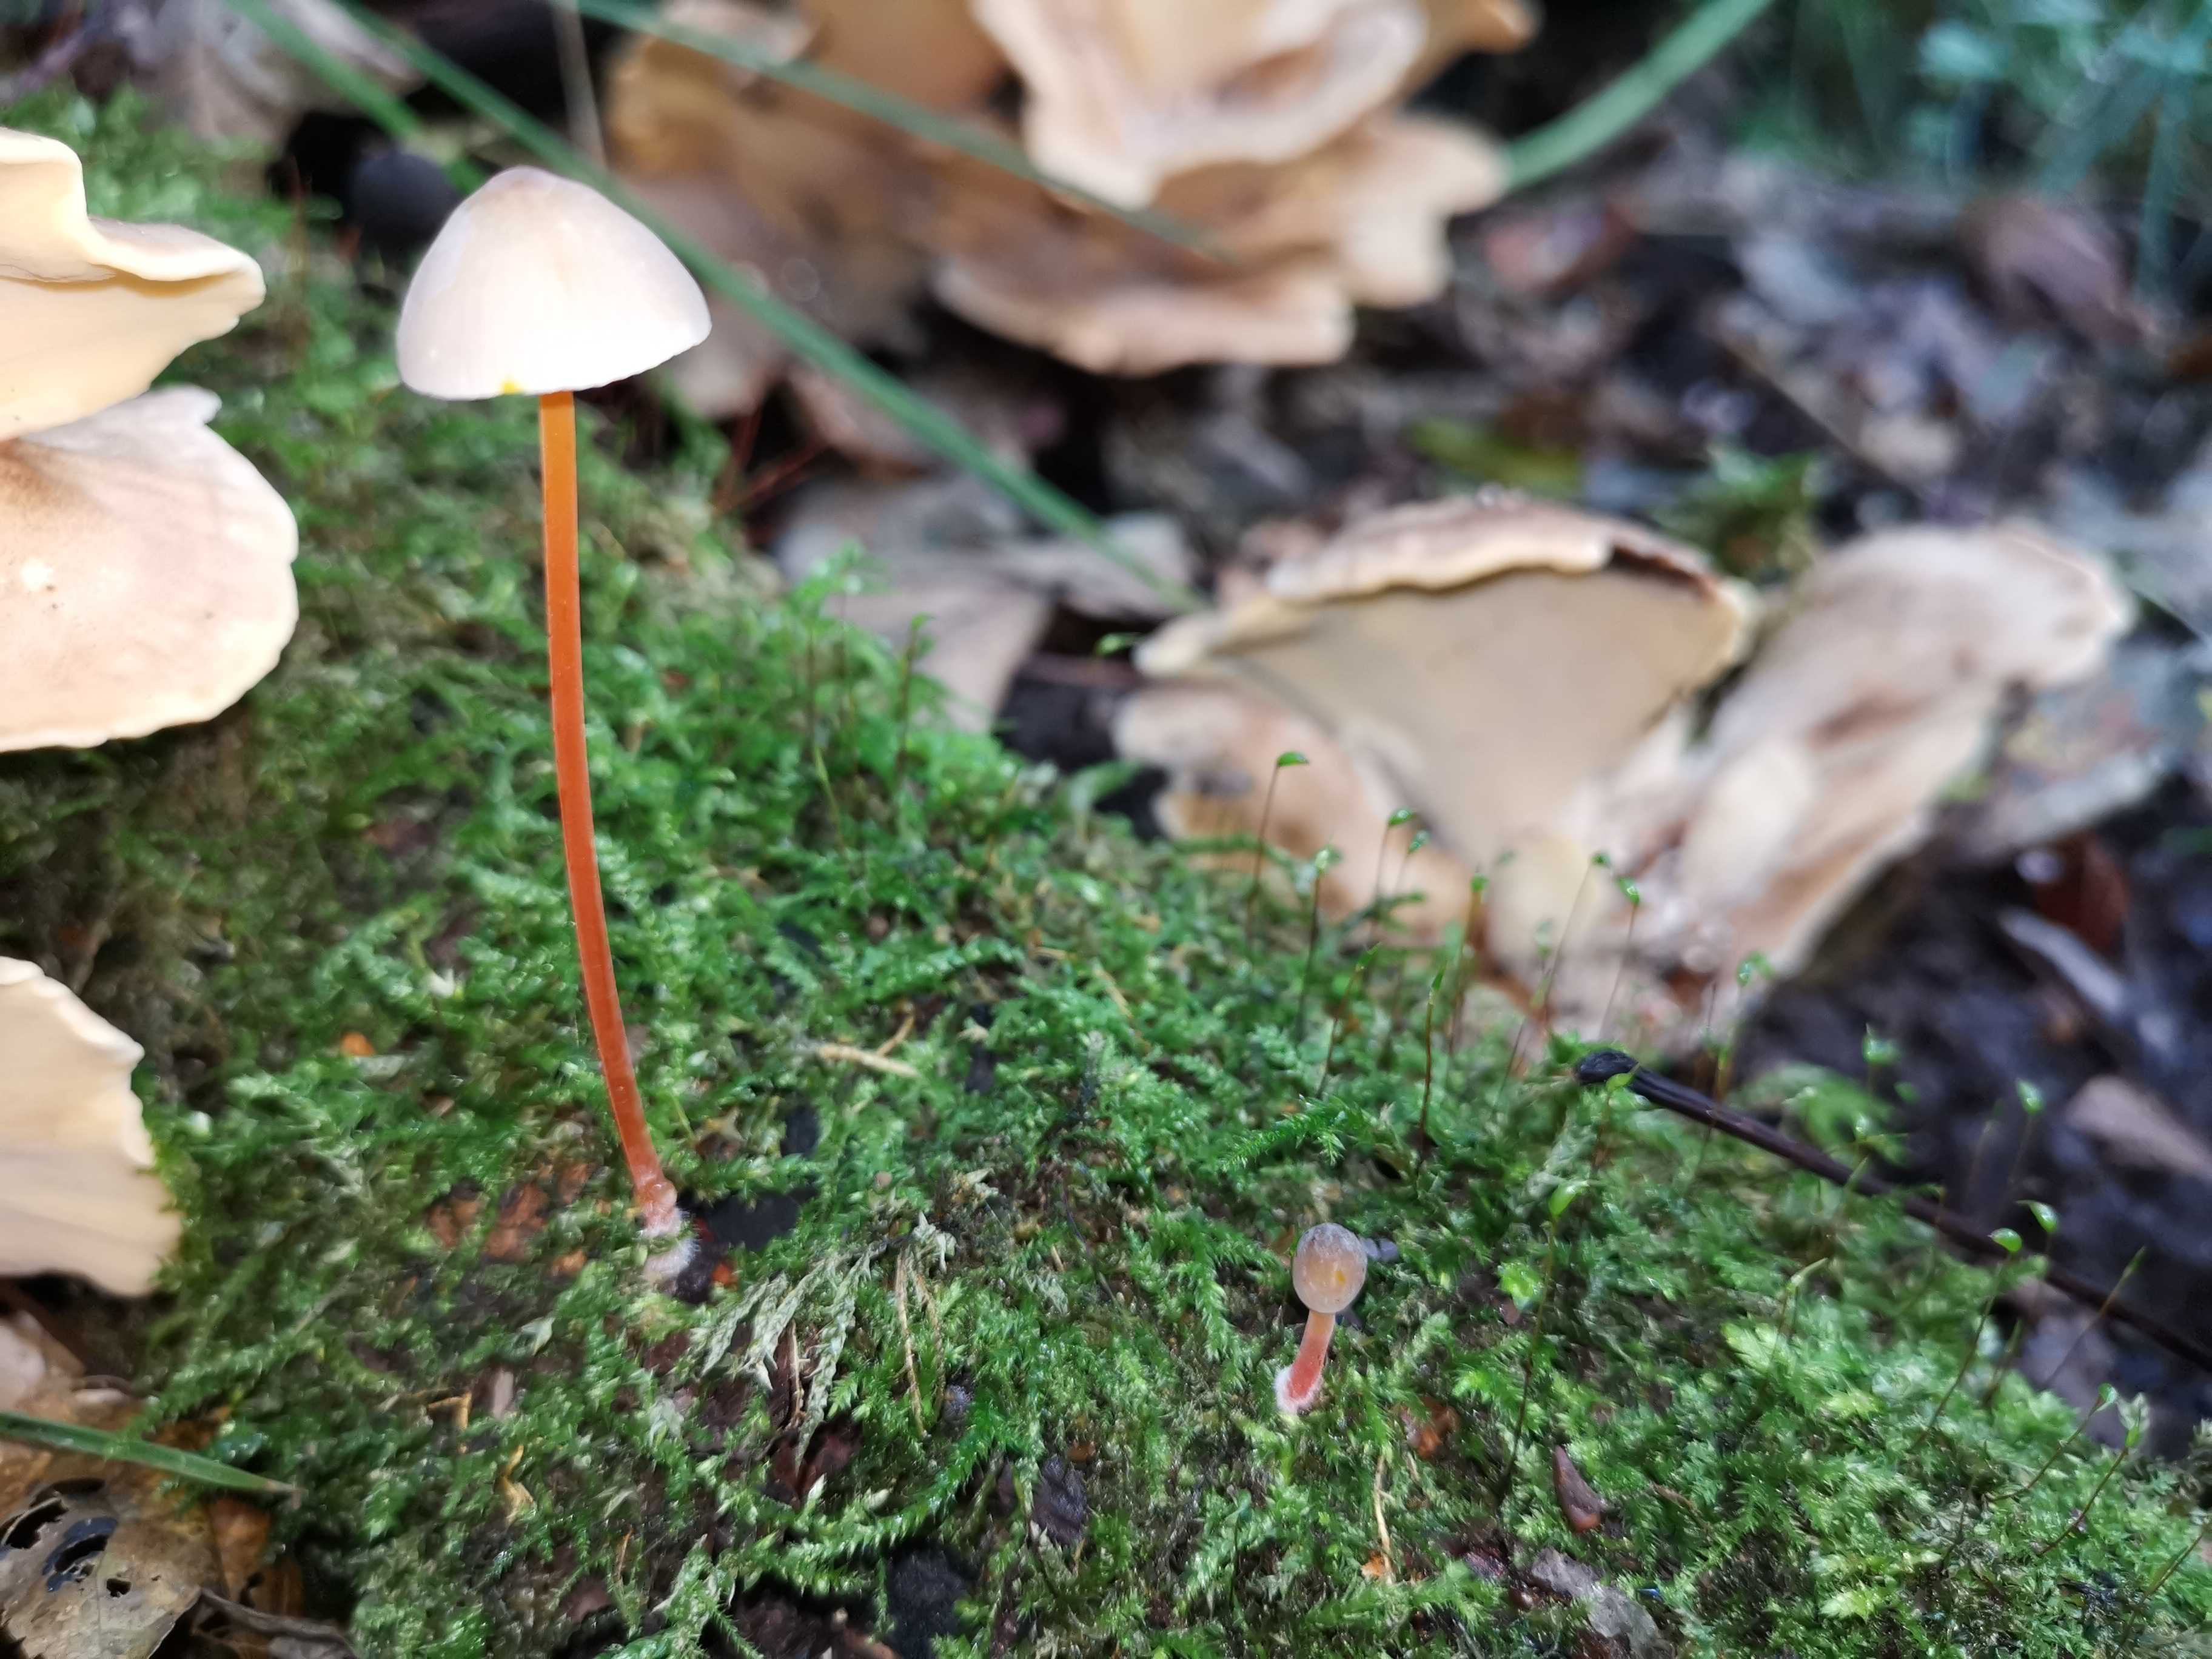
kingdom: Fungi
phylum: Basidiomycota
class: Agaricomycetes
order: Agaricales
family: Mycenaceae
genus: Mycena
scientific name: Mycena crocata
